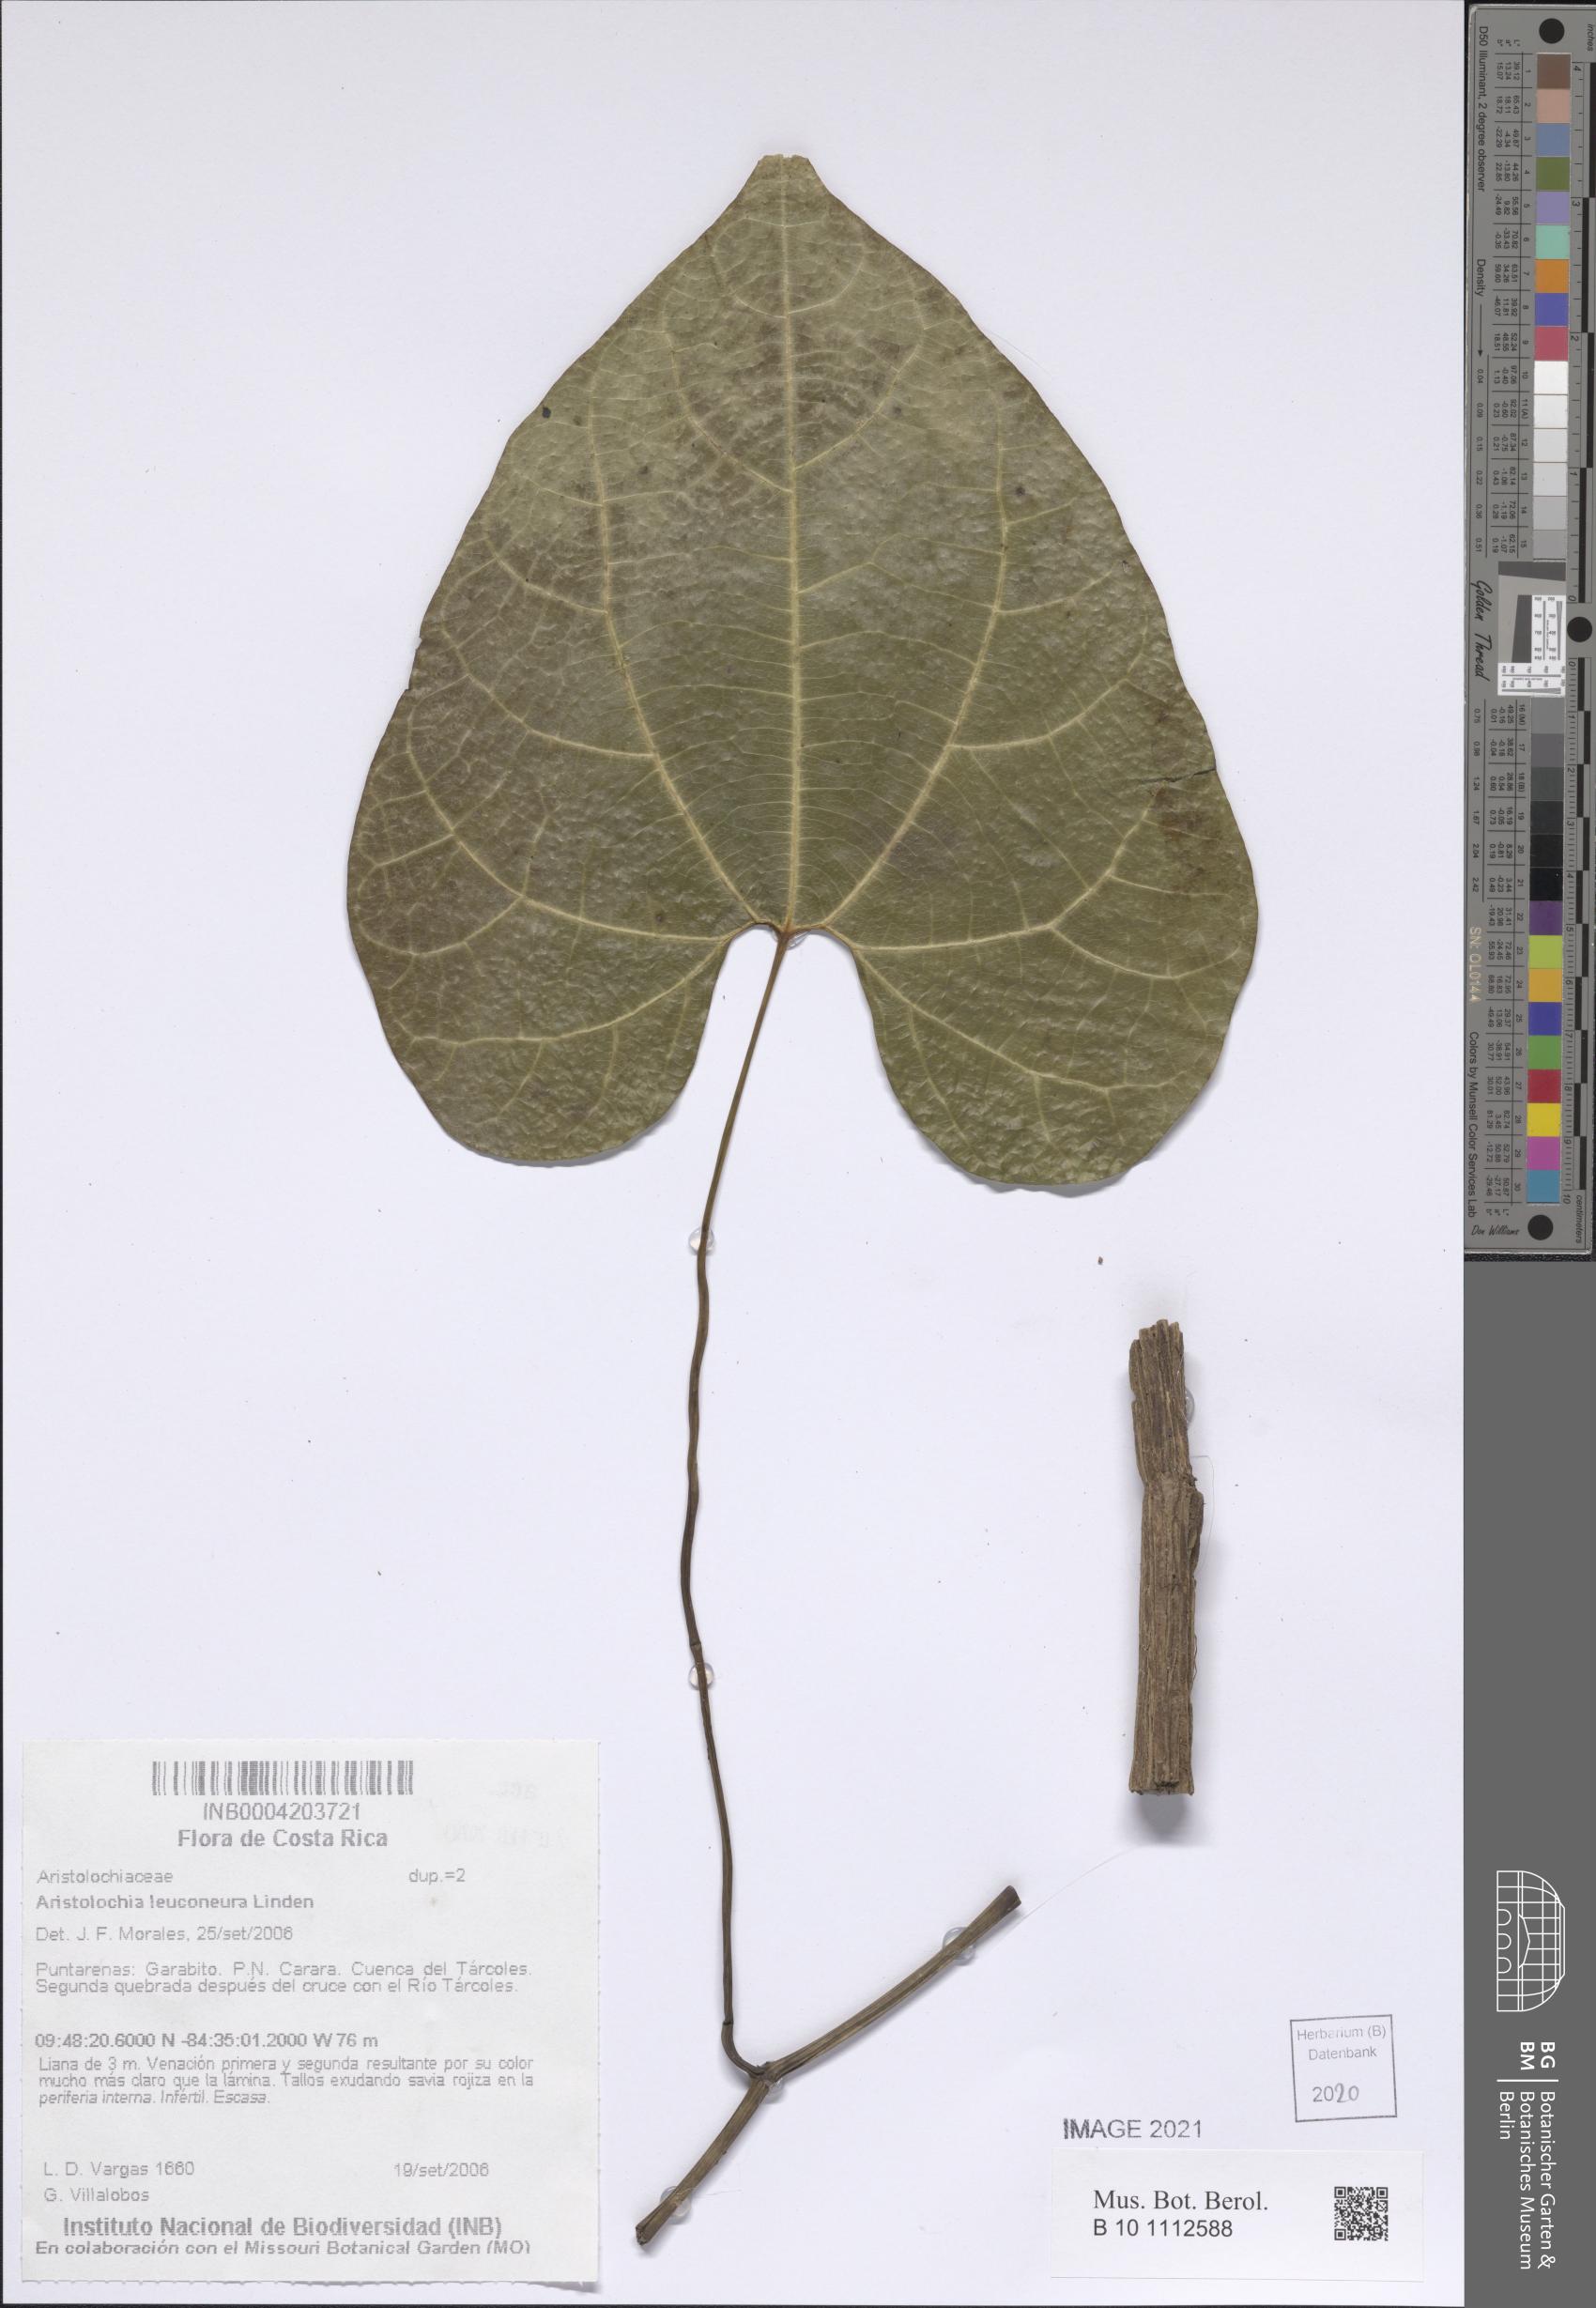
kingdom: Plantae
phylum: Tracheophyta
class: Magnoliopsida
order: Piperales
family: Aristolochiaceae
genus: Aristolochia
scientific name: Aristolochia leuconeura
